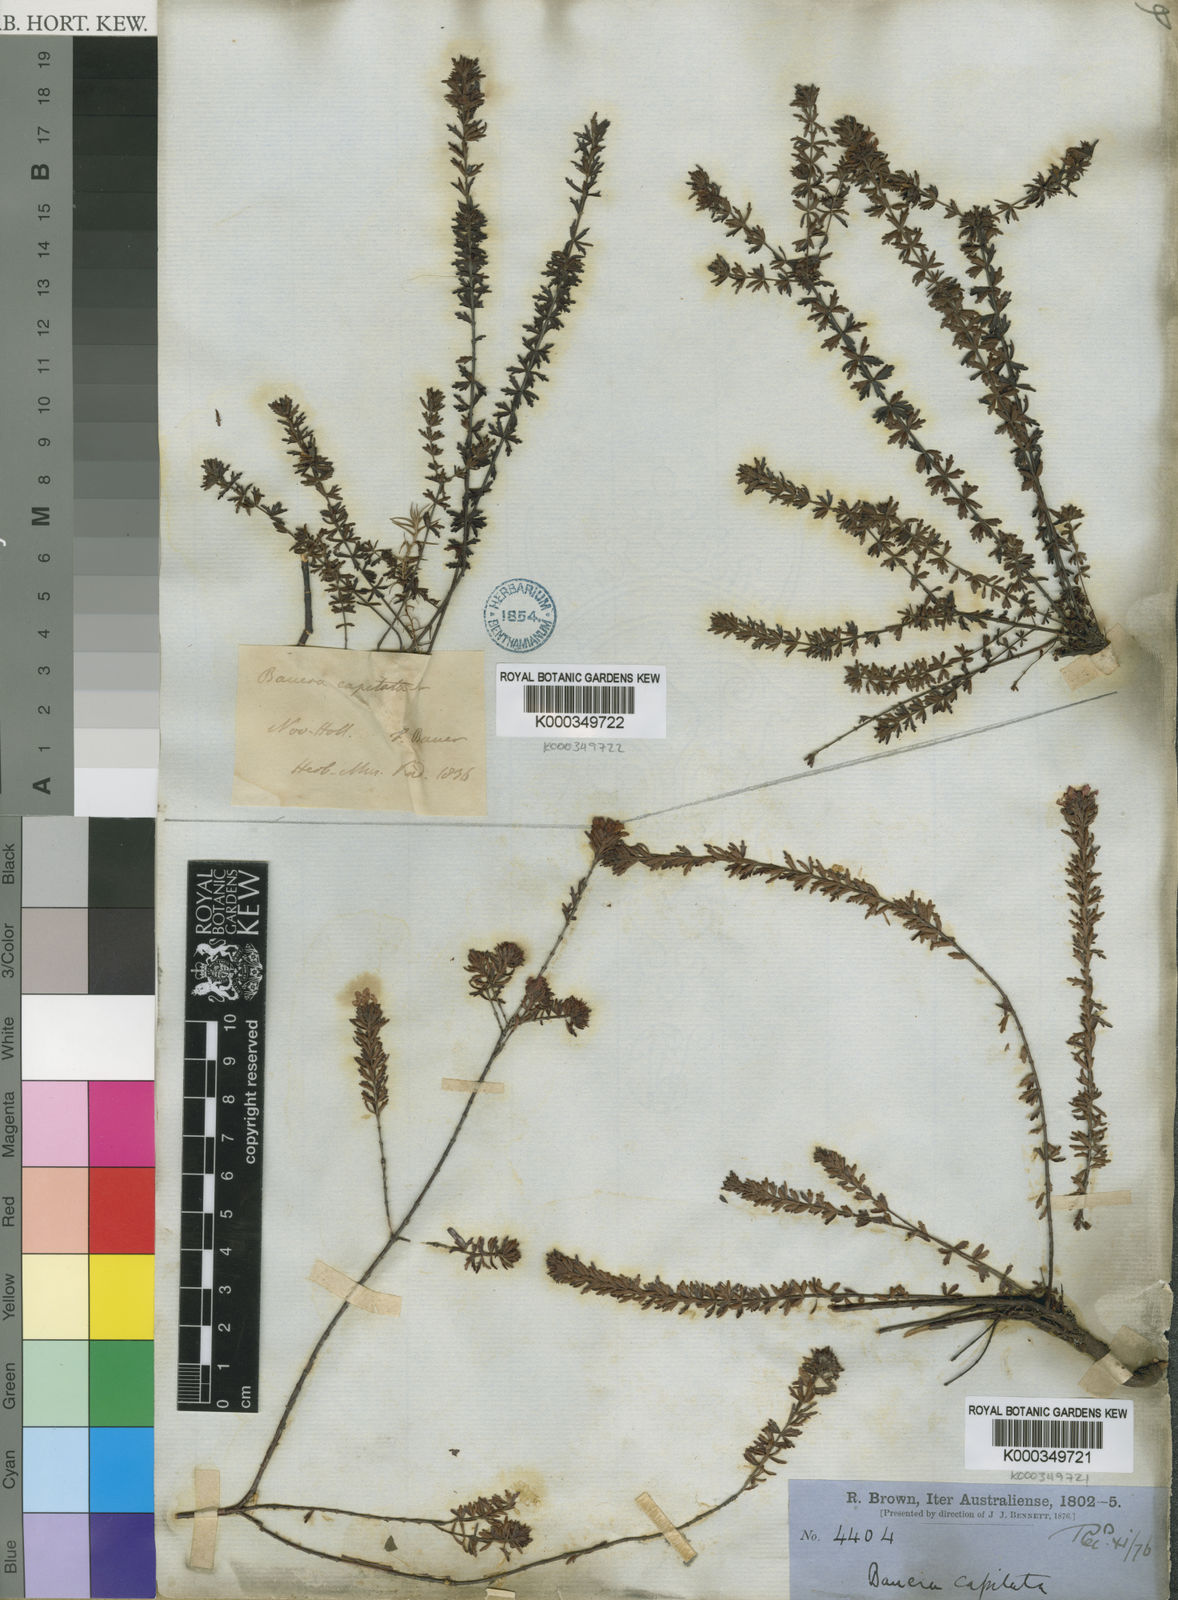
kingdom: Plantae
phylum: Tracheophyta
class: Magnoliopsida
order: Oxalidales
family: Cunoniaceae
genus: Bauera
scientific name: Bauera
